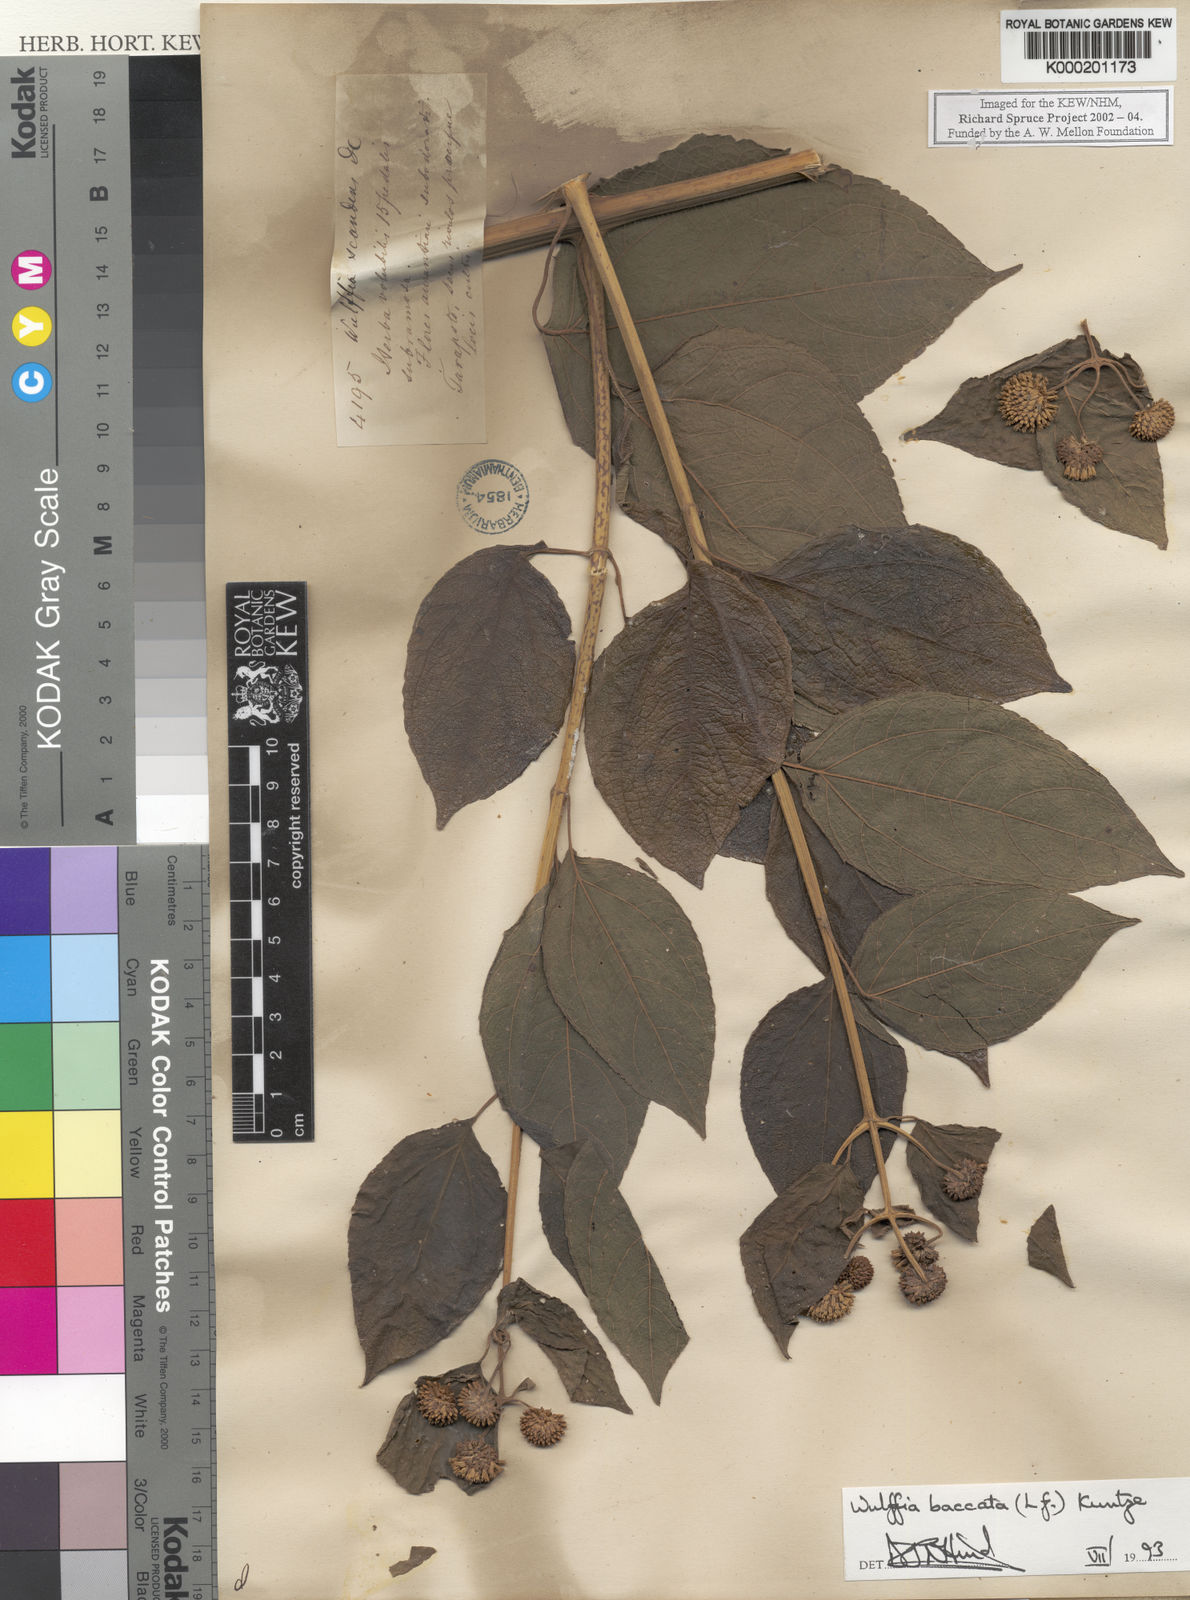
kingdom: Plantae
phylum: Tracheophyta
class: Magnoliopsida
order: Asterales
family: Asteraceae
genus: Tilesia
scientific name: Tilesia baccata
